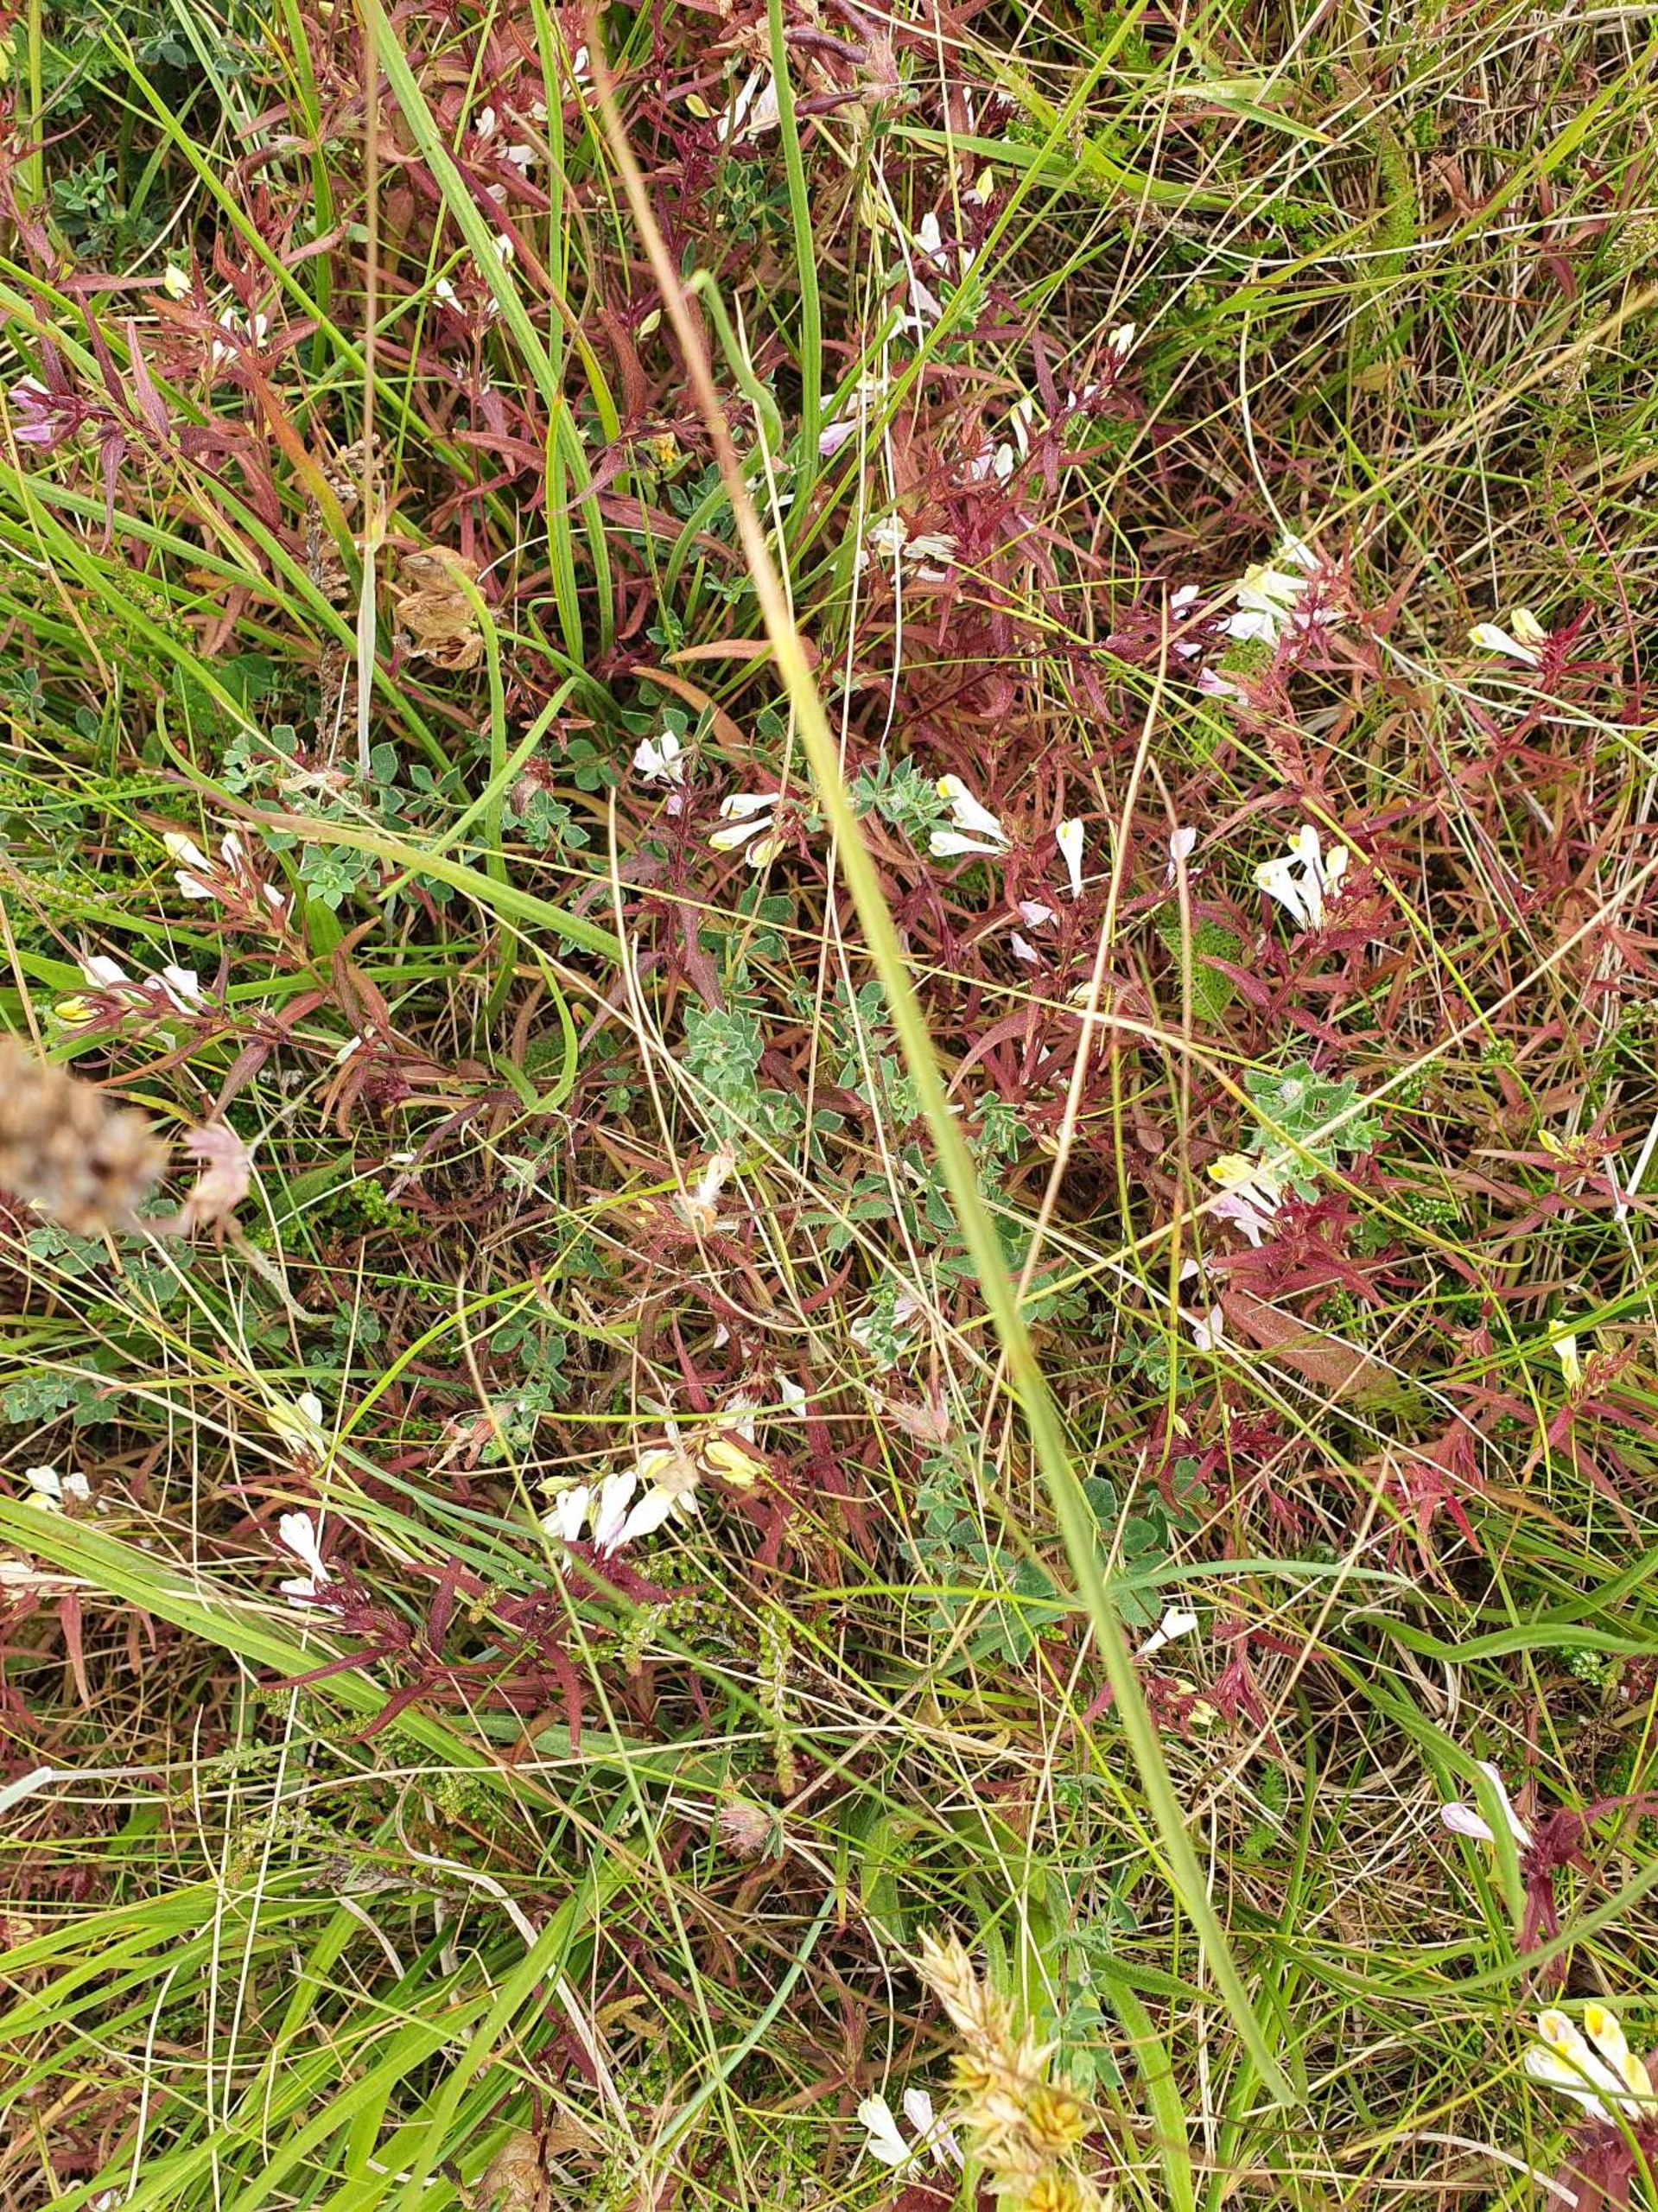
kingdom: Plantae
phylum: Tracheophyta
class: Magnoliopsida
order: Lamiales
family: Orobanchaceae
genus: Melampyrum
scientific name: Melampyrum pratense
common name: Almindelig kohvede
